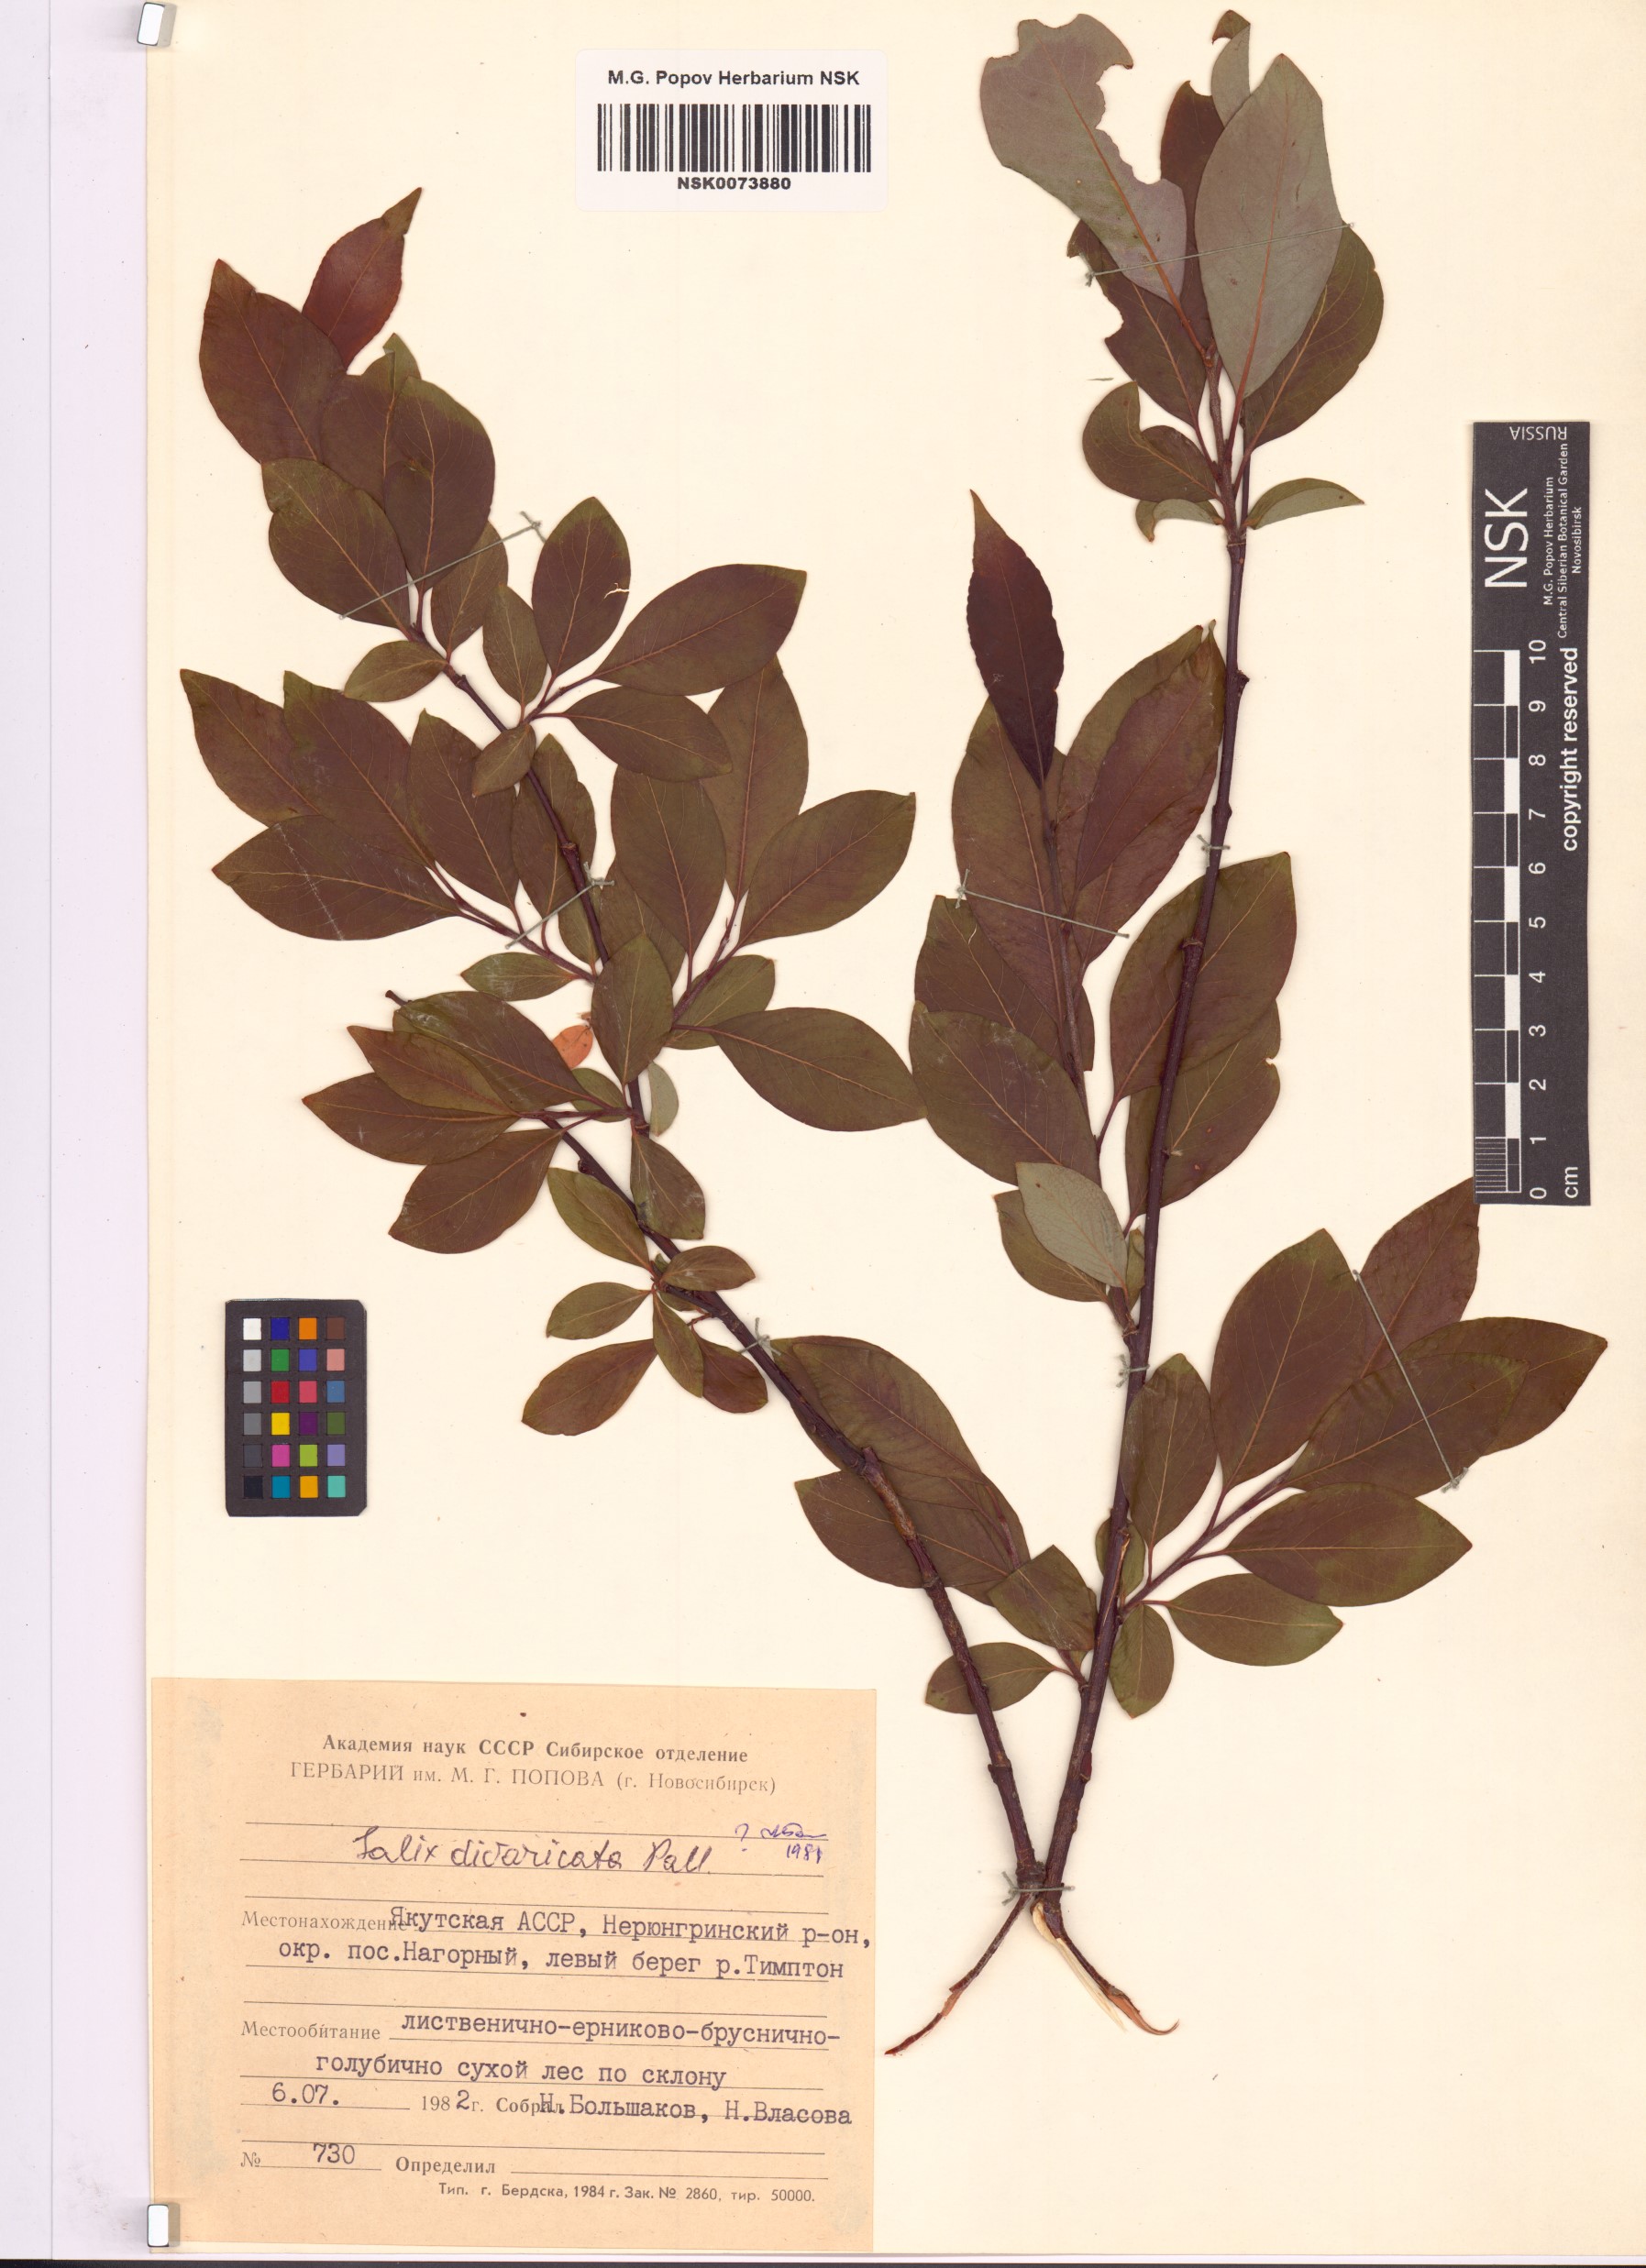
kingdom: Plantae
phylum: Tracheophyta
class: Magnoliopsida
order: Malpighiales
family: Salicaceae
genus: Salix
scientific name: Salix divaricata
